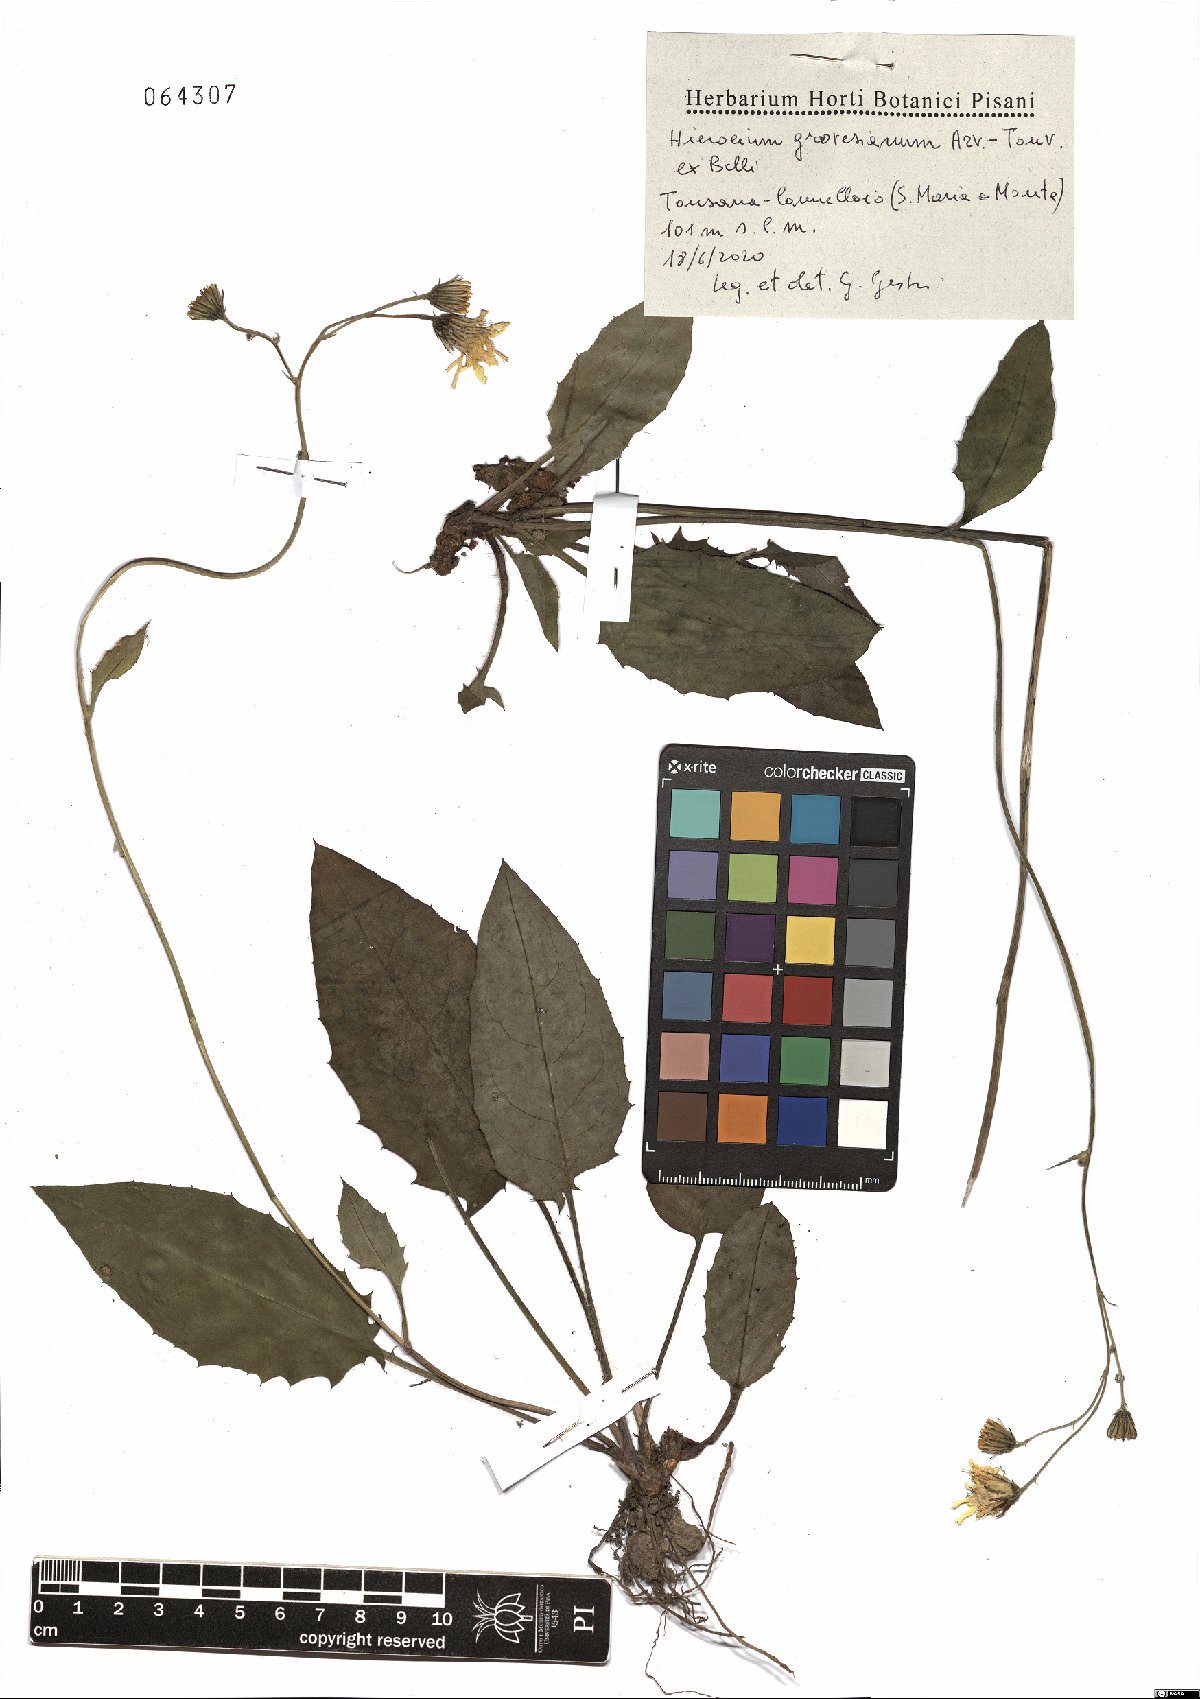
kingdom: Plantae
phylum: Tracheophyta
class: Magnoliopsida
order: Asterales
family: Asteraceae
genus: Hieracium
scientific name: Hieracium grovesianum
